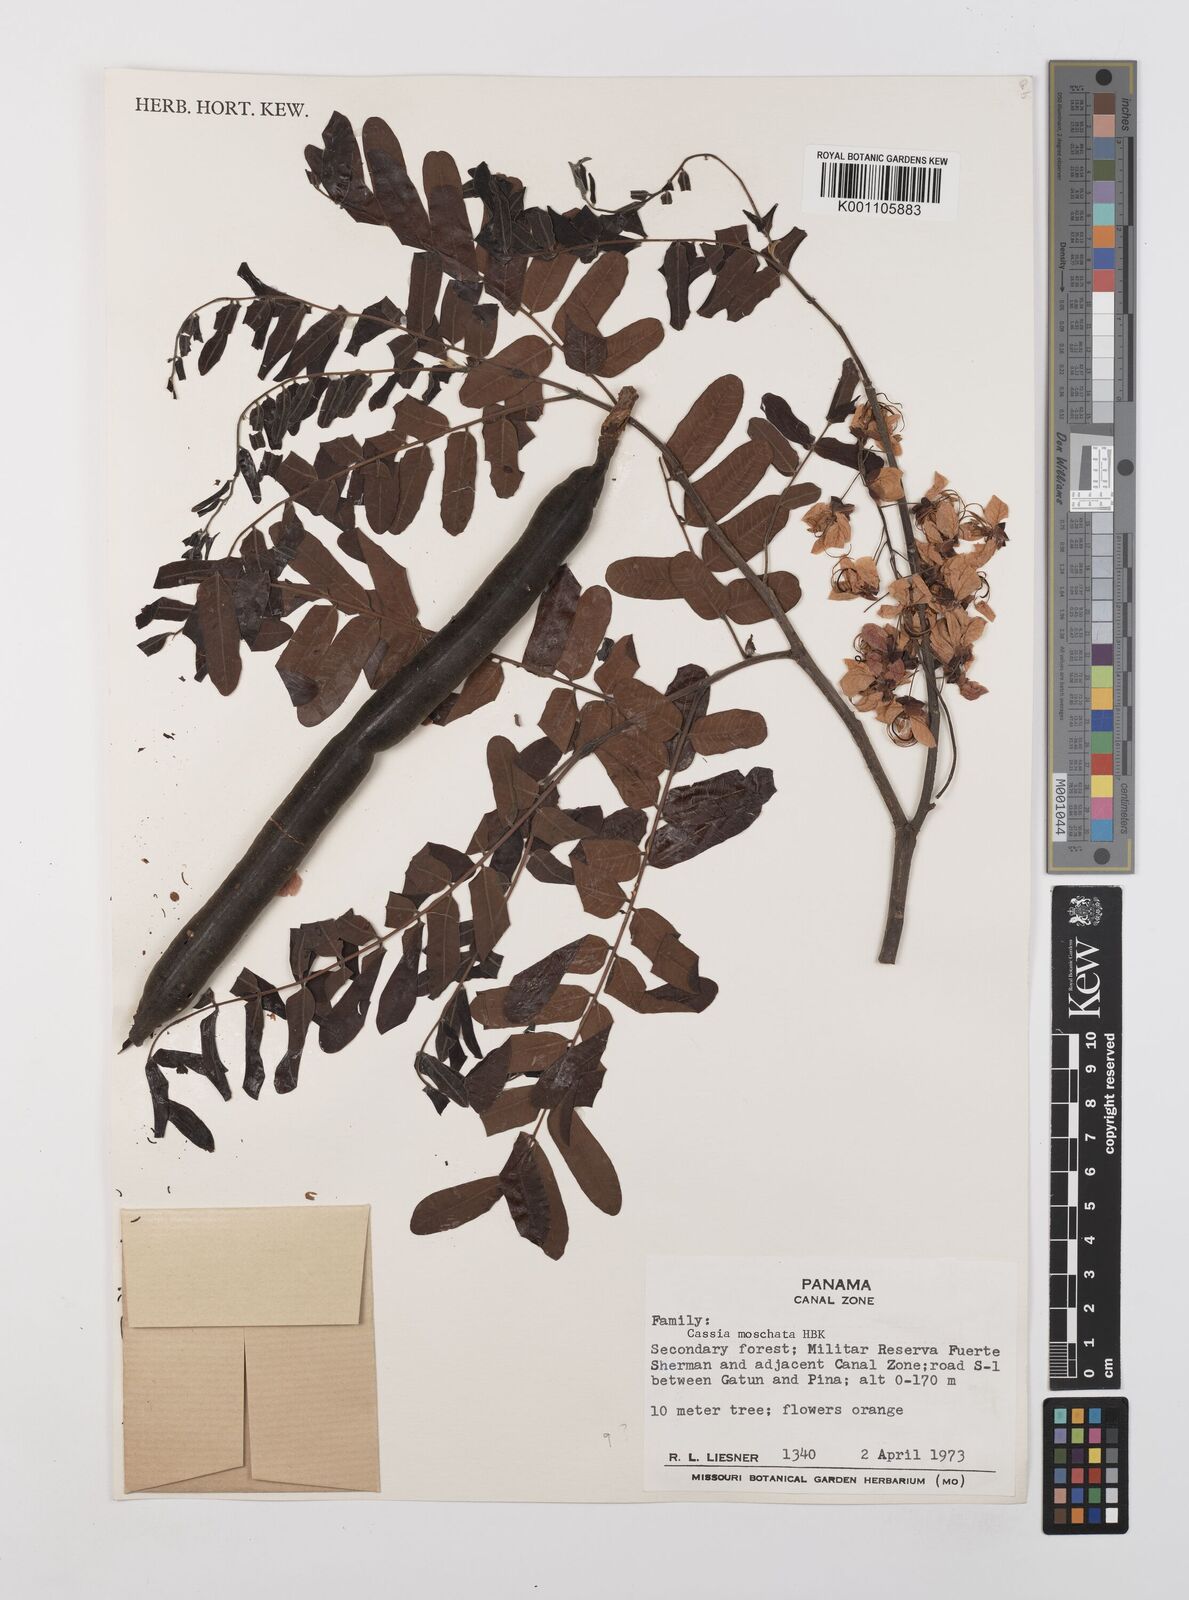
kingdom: Plantae
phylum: Tracheophyta
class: Magnoliopsida
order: Fabales
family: Fabaceae
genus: Cassia
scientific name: Cassia moschata
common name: Bronze shower tree
